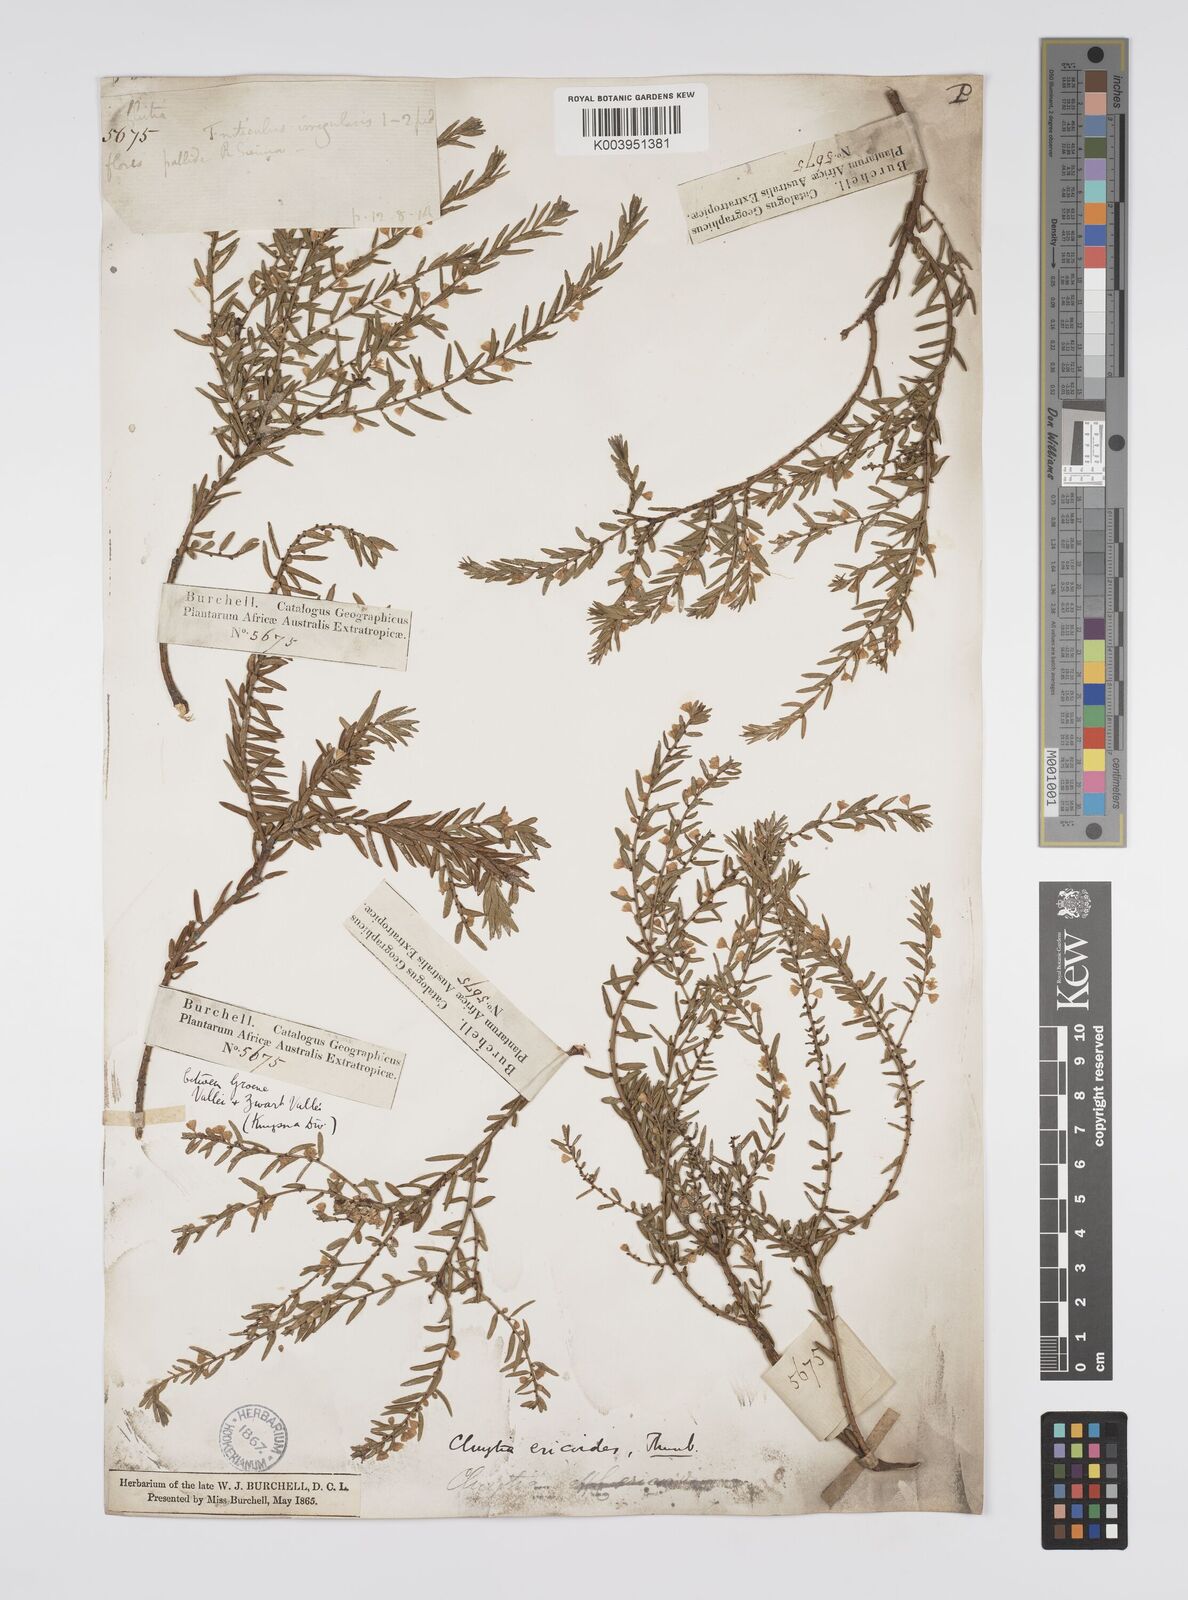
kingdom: Plantae
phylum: Tracheophyta
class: Magnoliopsida
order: Malpighiales
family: Peraceae
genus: Clutia
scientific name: Clutia
